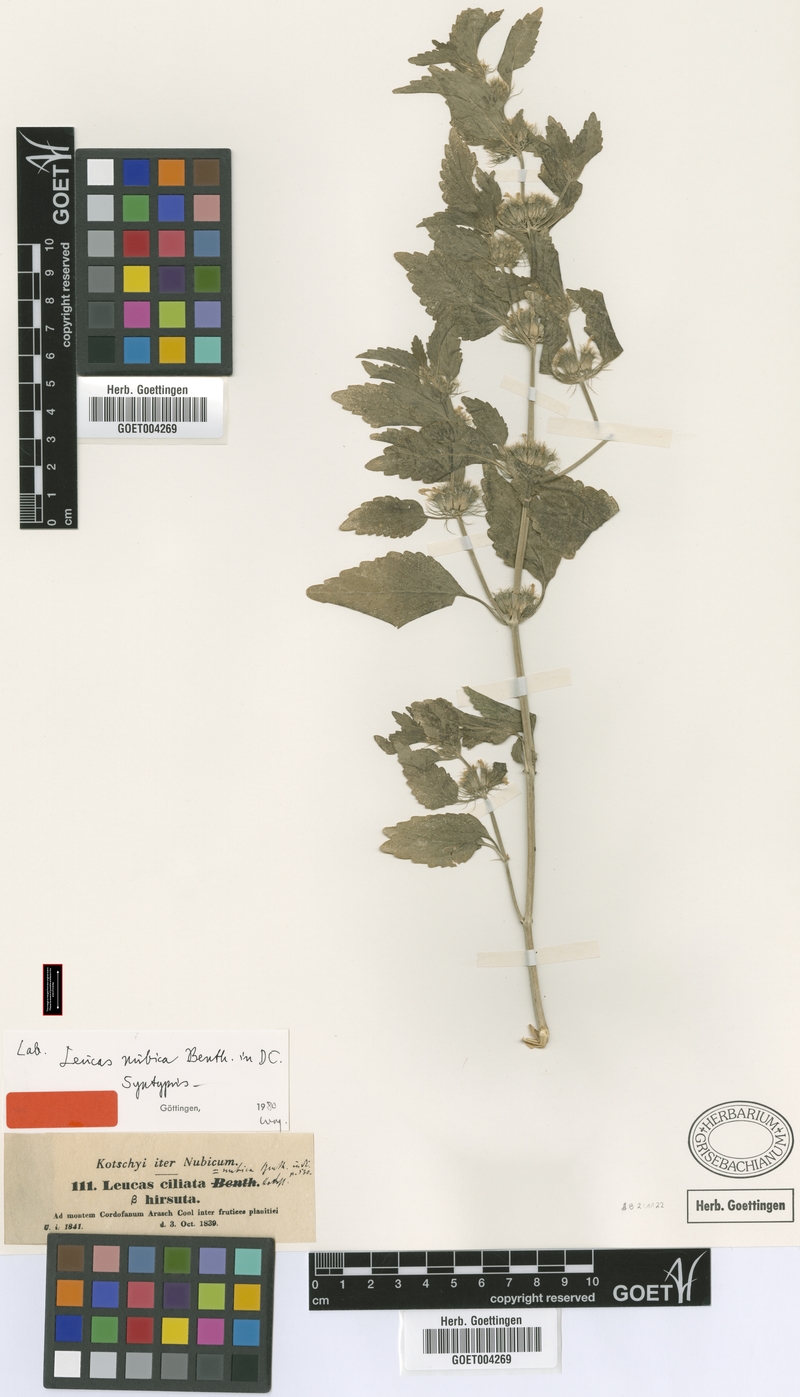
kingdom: Plantae
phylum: Tracheophyta
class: Magnoliopsida
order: Lamiales
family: Lamiaceae
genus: Leucas
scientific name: Leucas nubica
